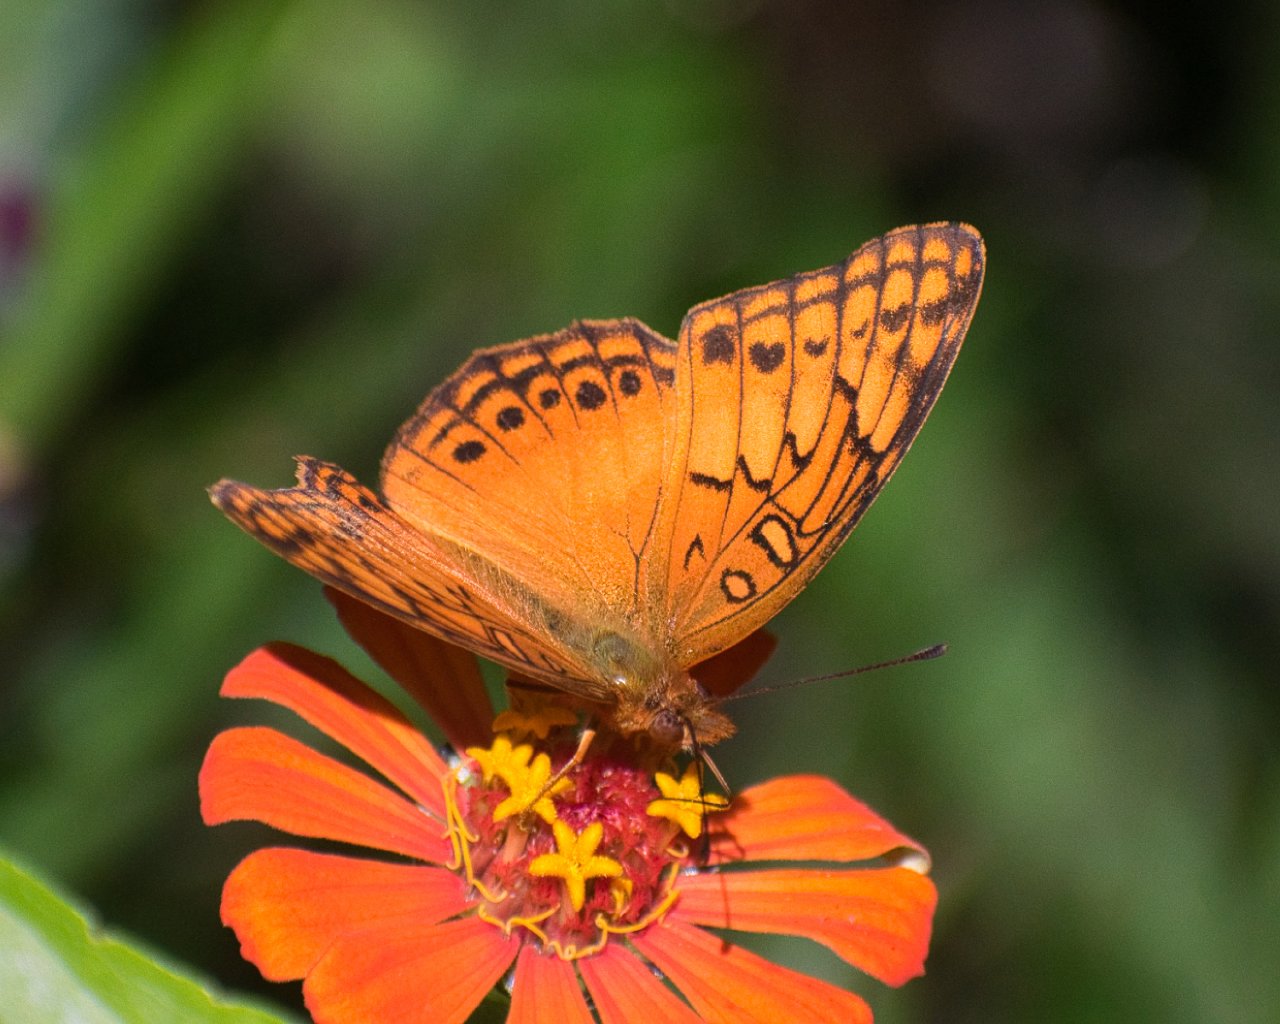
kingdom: Animalia
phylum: Arthropoda
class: Insecta
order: Lepidoptera
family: Nymphalidae
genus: Euptoieta
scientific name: Euptoieta hegesia
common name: Mexican Fritillary
